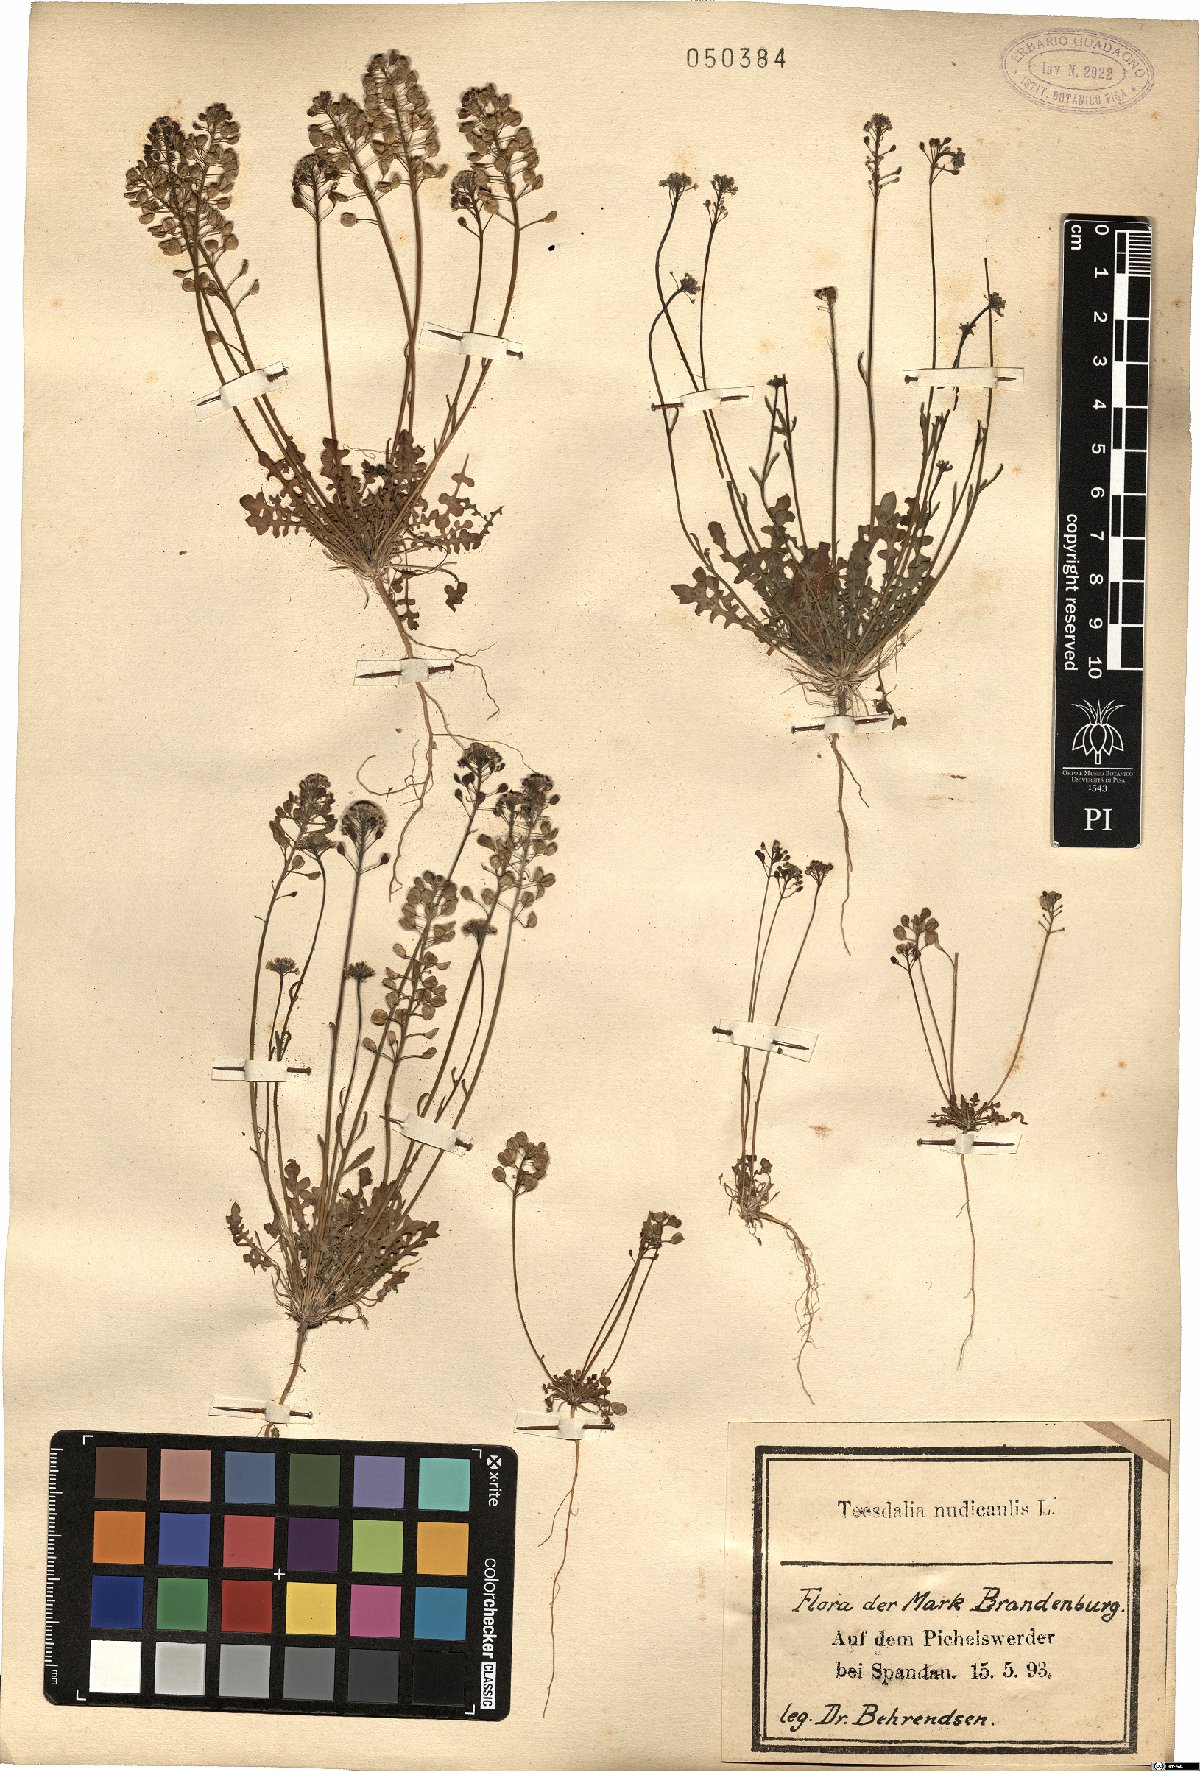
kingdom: Plantae
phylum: Tracheophyta
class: Magnoliopsida
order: Brassicales
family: Brassicaceae
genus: Teesdalia
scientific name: Teesdalia nudicaulis
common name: Shepherd's cress
